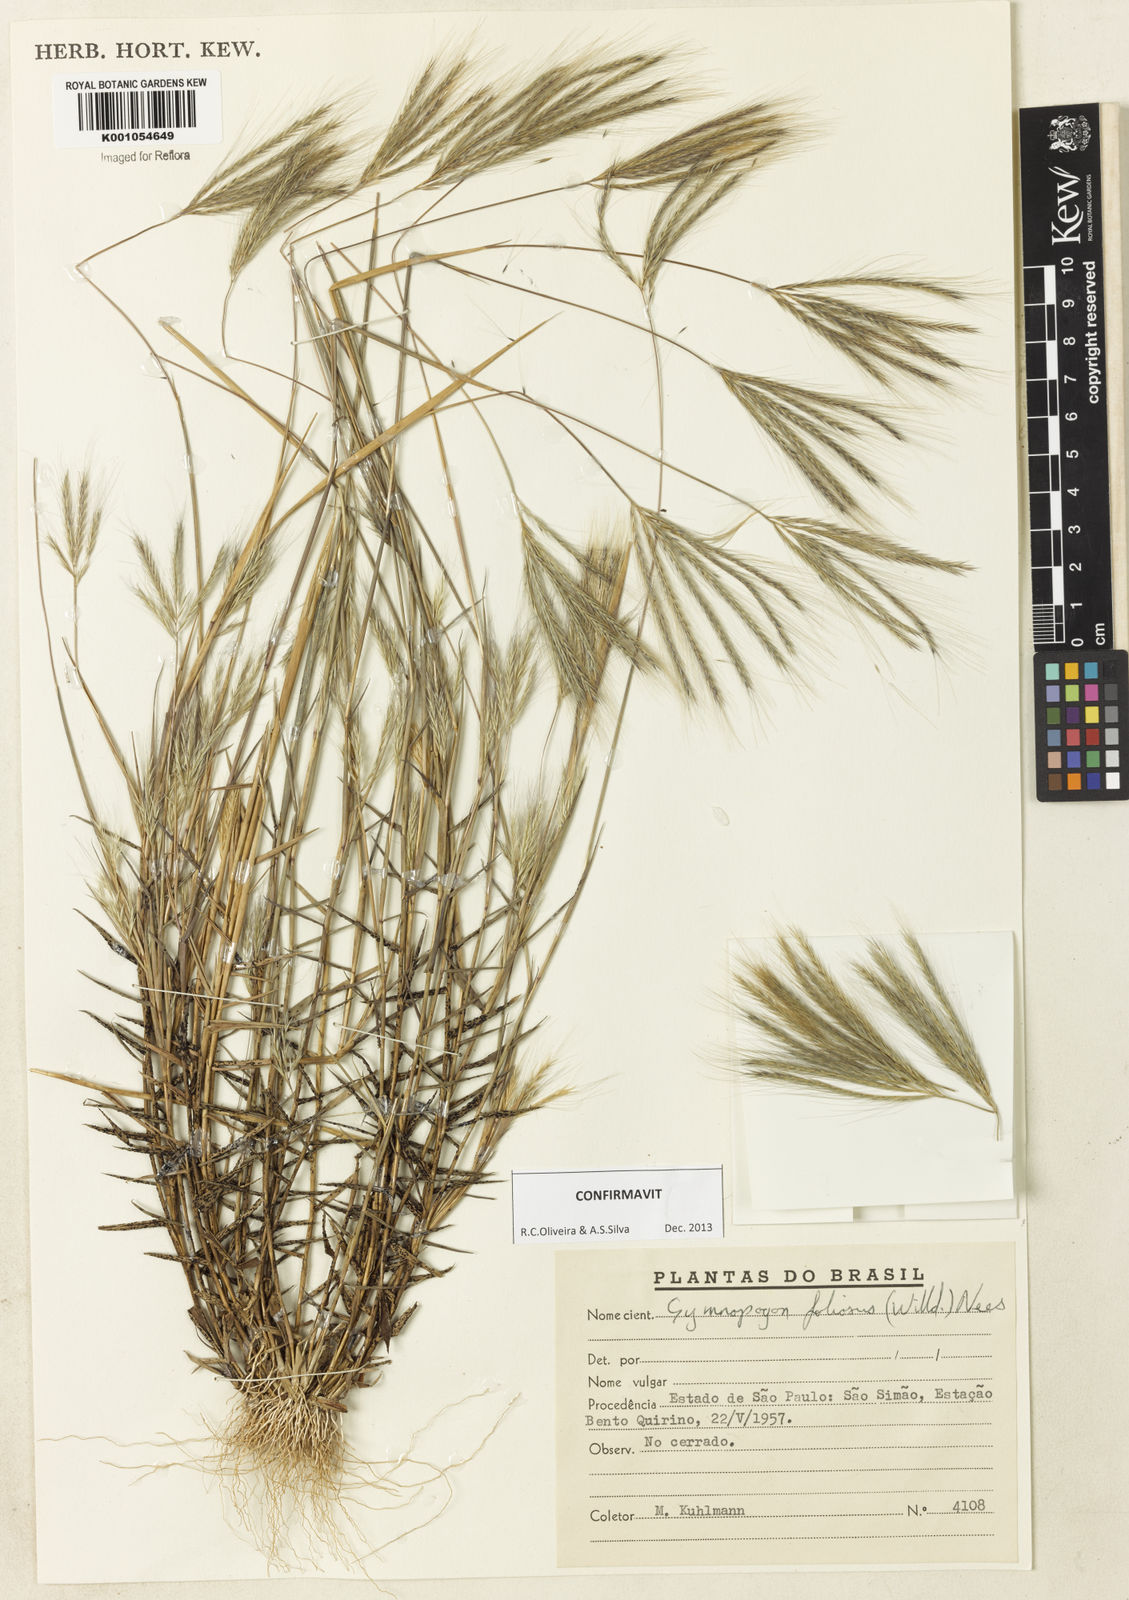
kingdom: Plantae
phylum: Tracheophyta
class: Liliopsida
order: Poales
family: Poaceae
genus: Gymnopogon
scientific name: Gymnopogon foliosus
